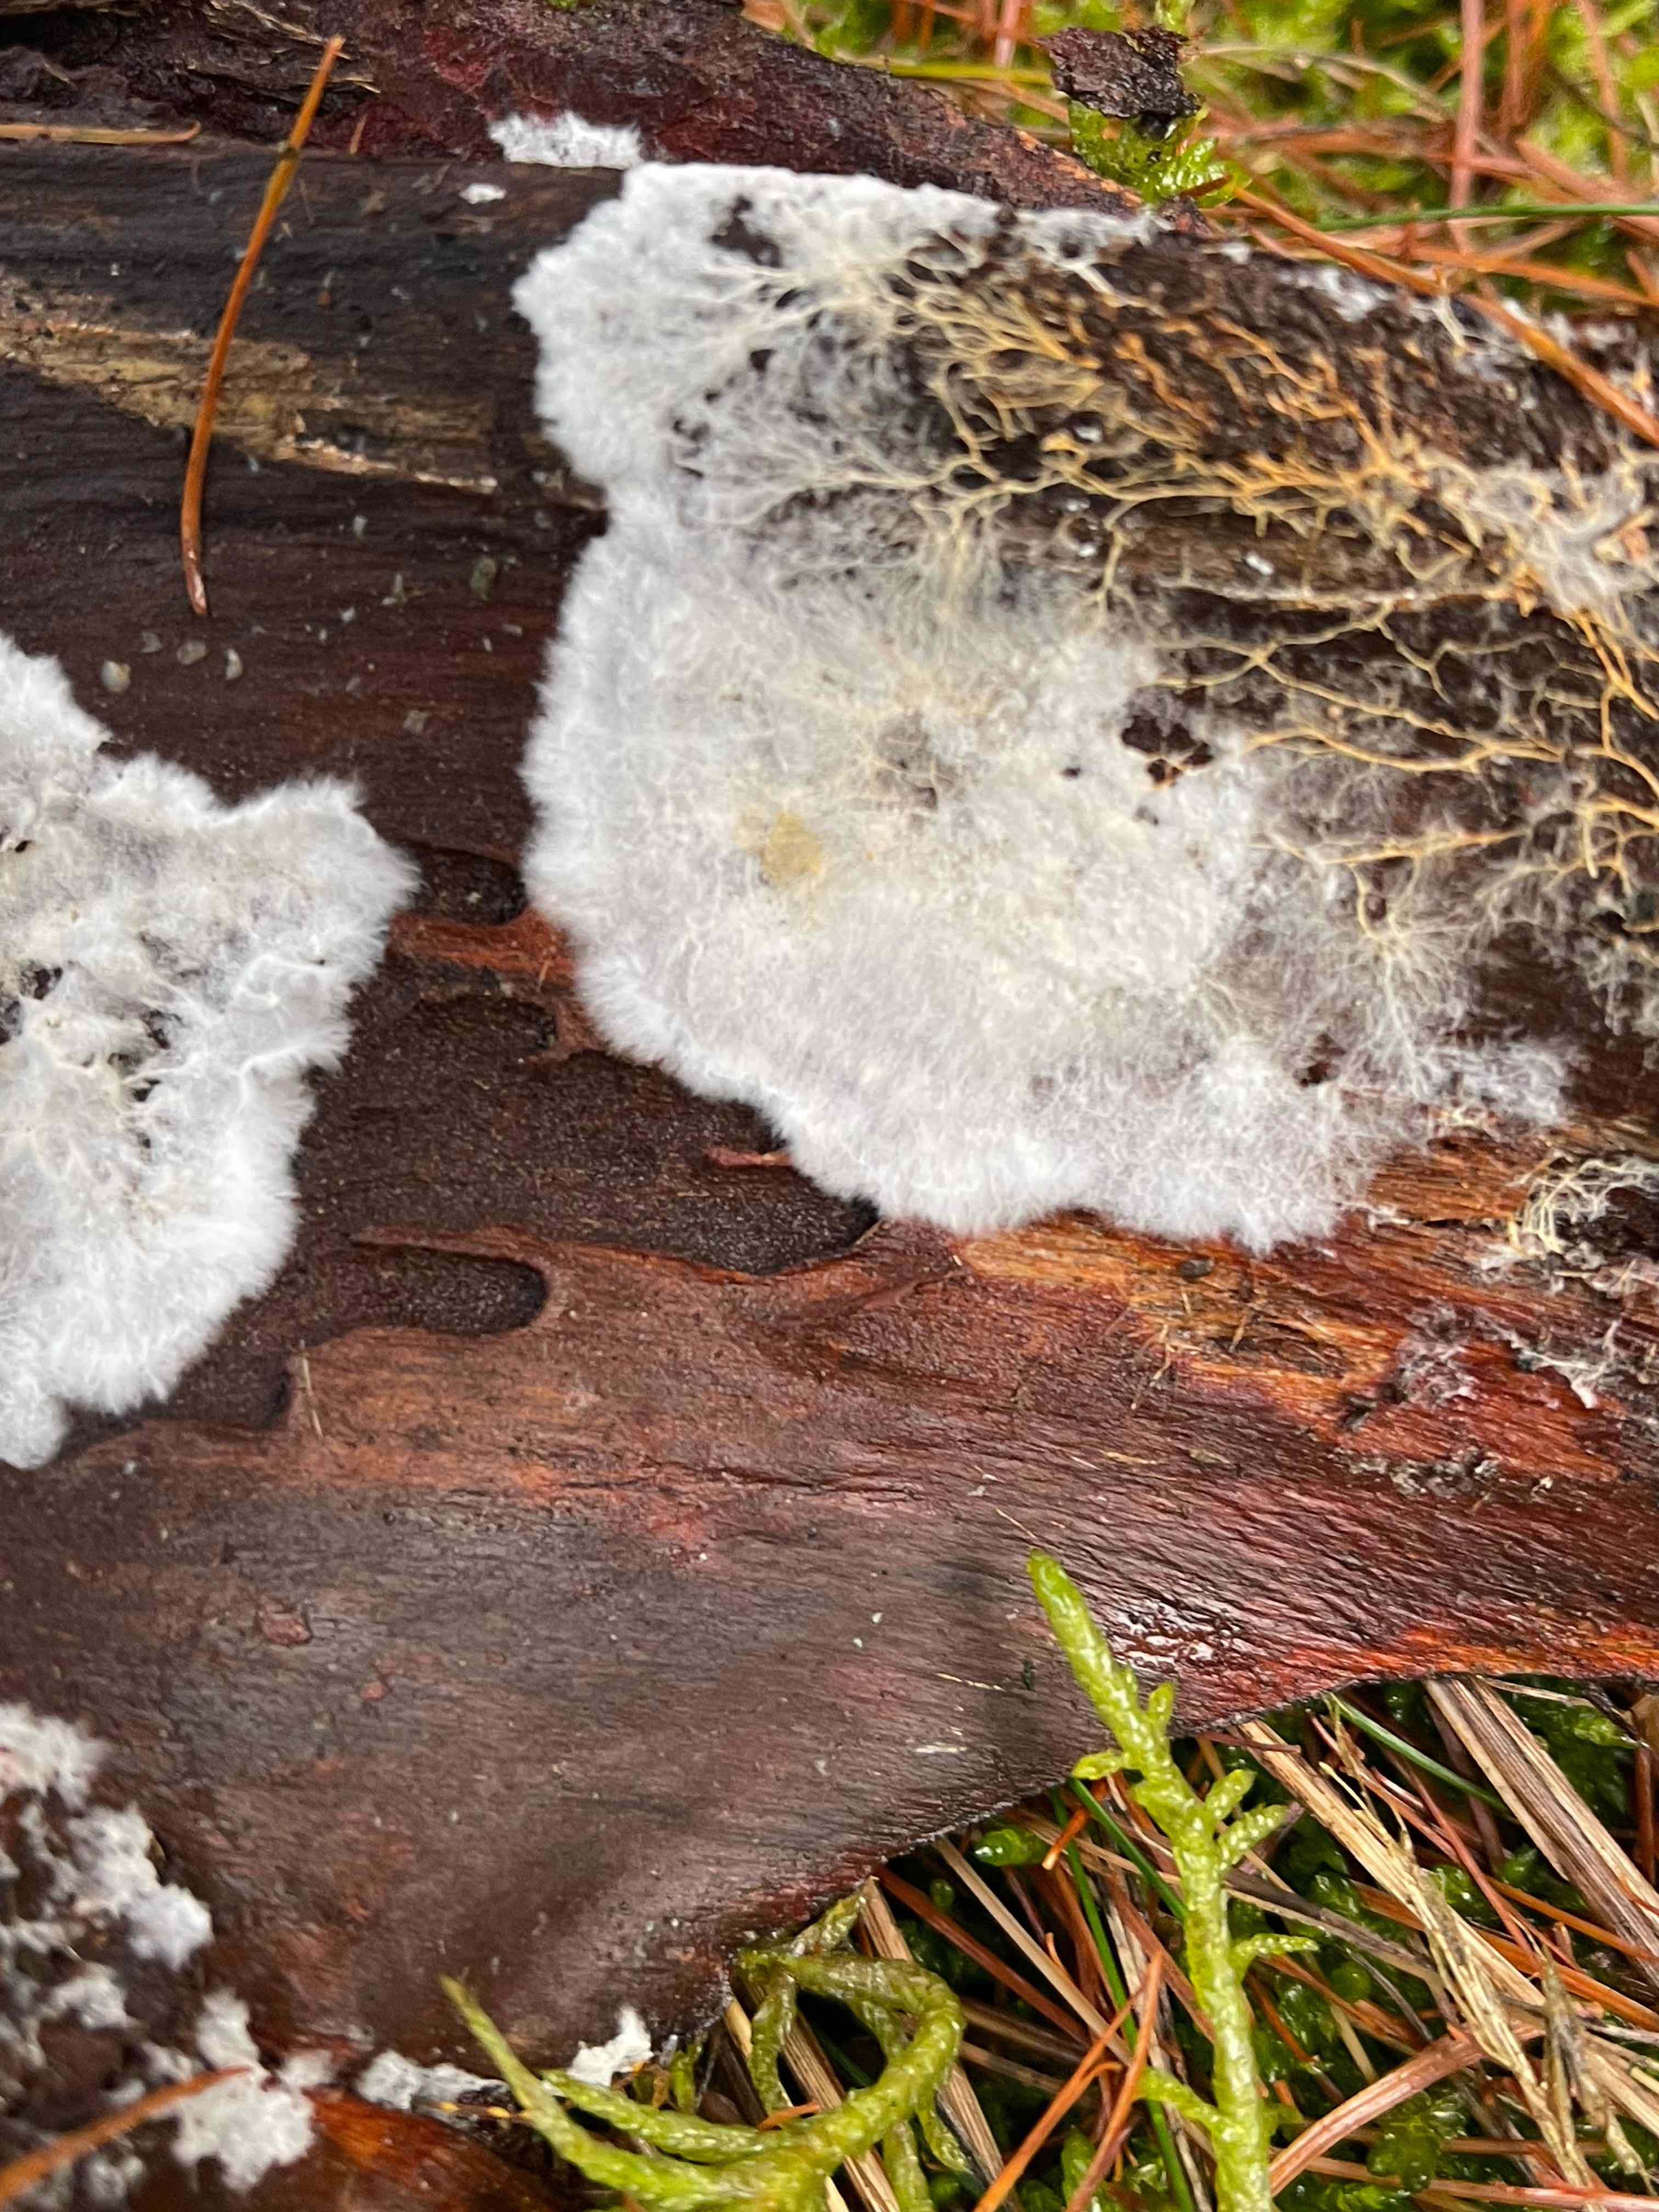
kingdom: Fungi
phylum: Basidiomycota
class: Agaricomycetes
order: Atheliales
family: Atheliaceae
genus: Leptosporomyces
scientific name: Leptosporomyces fuscostratus
